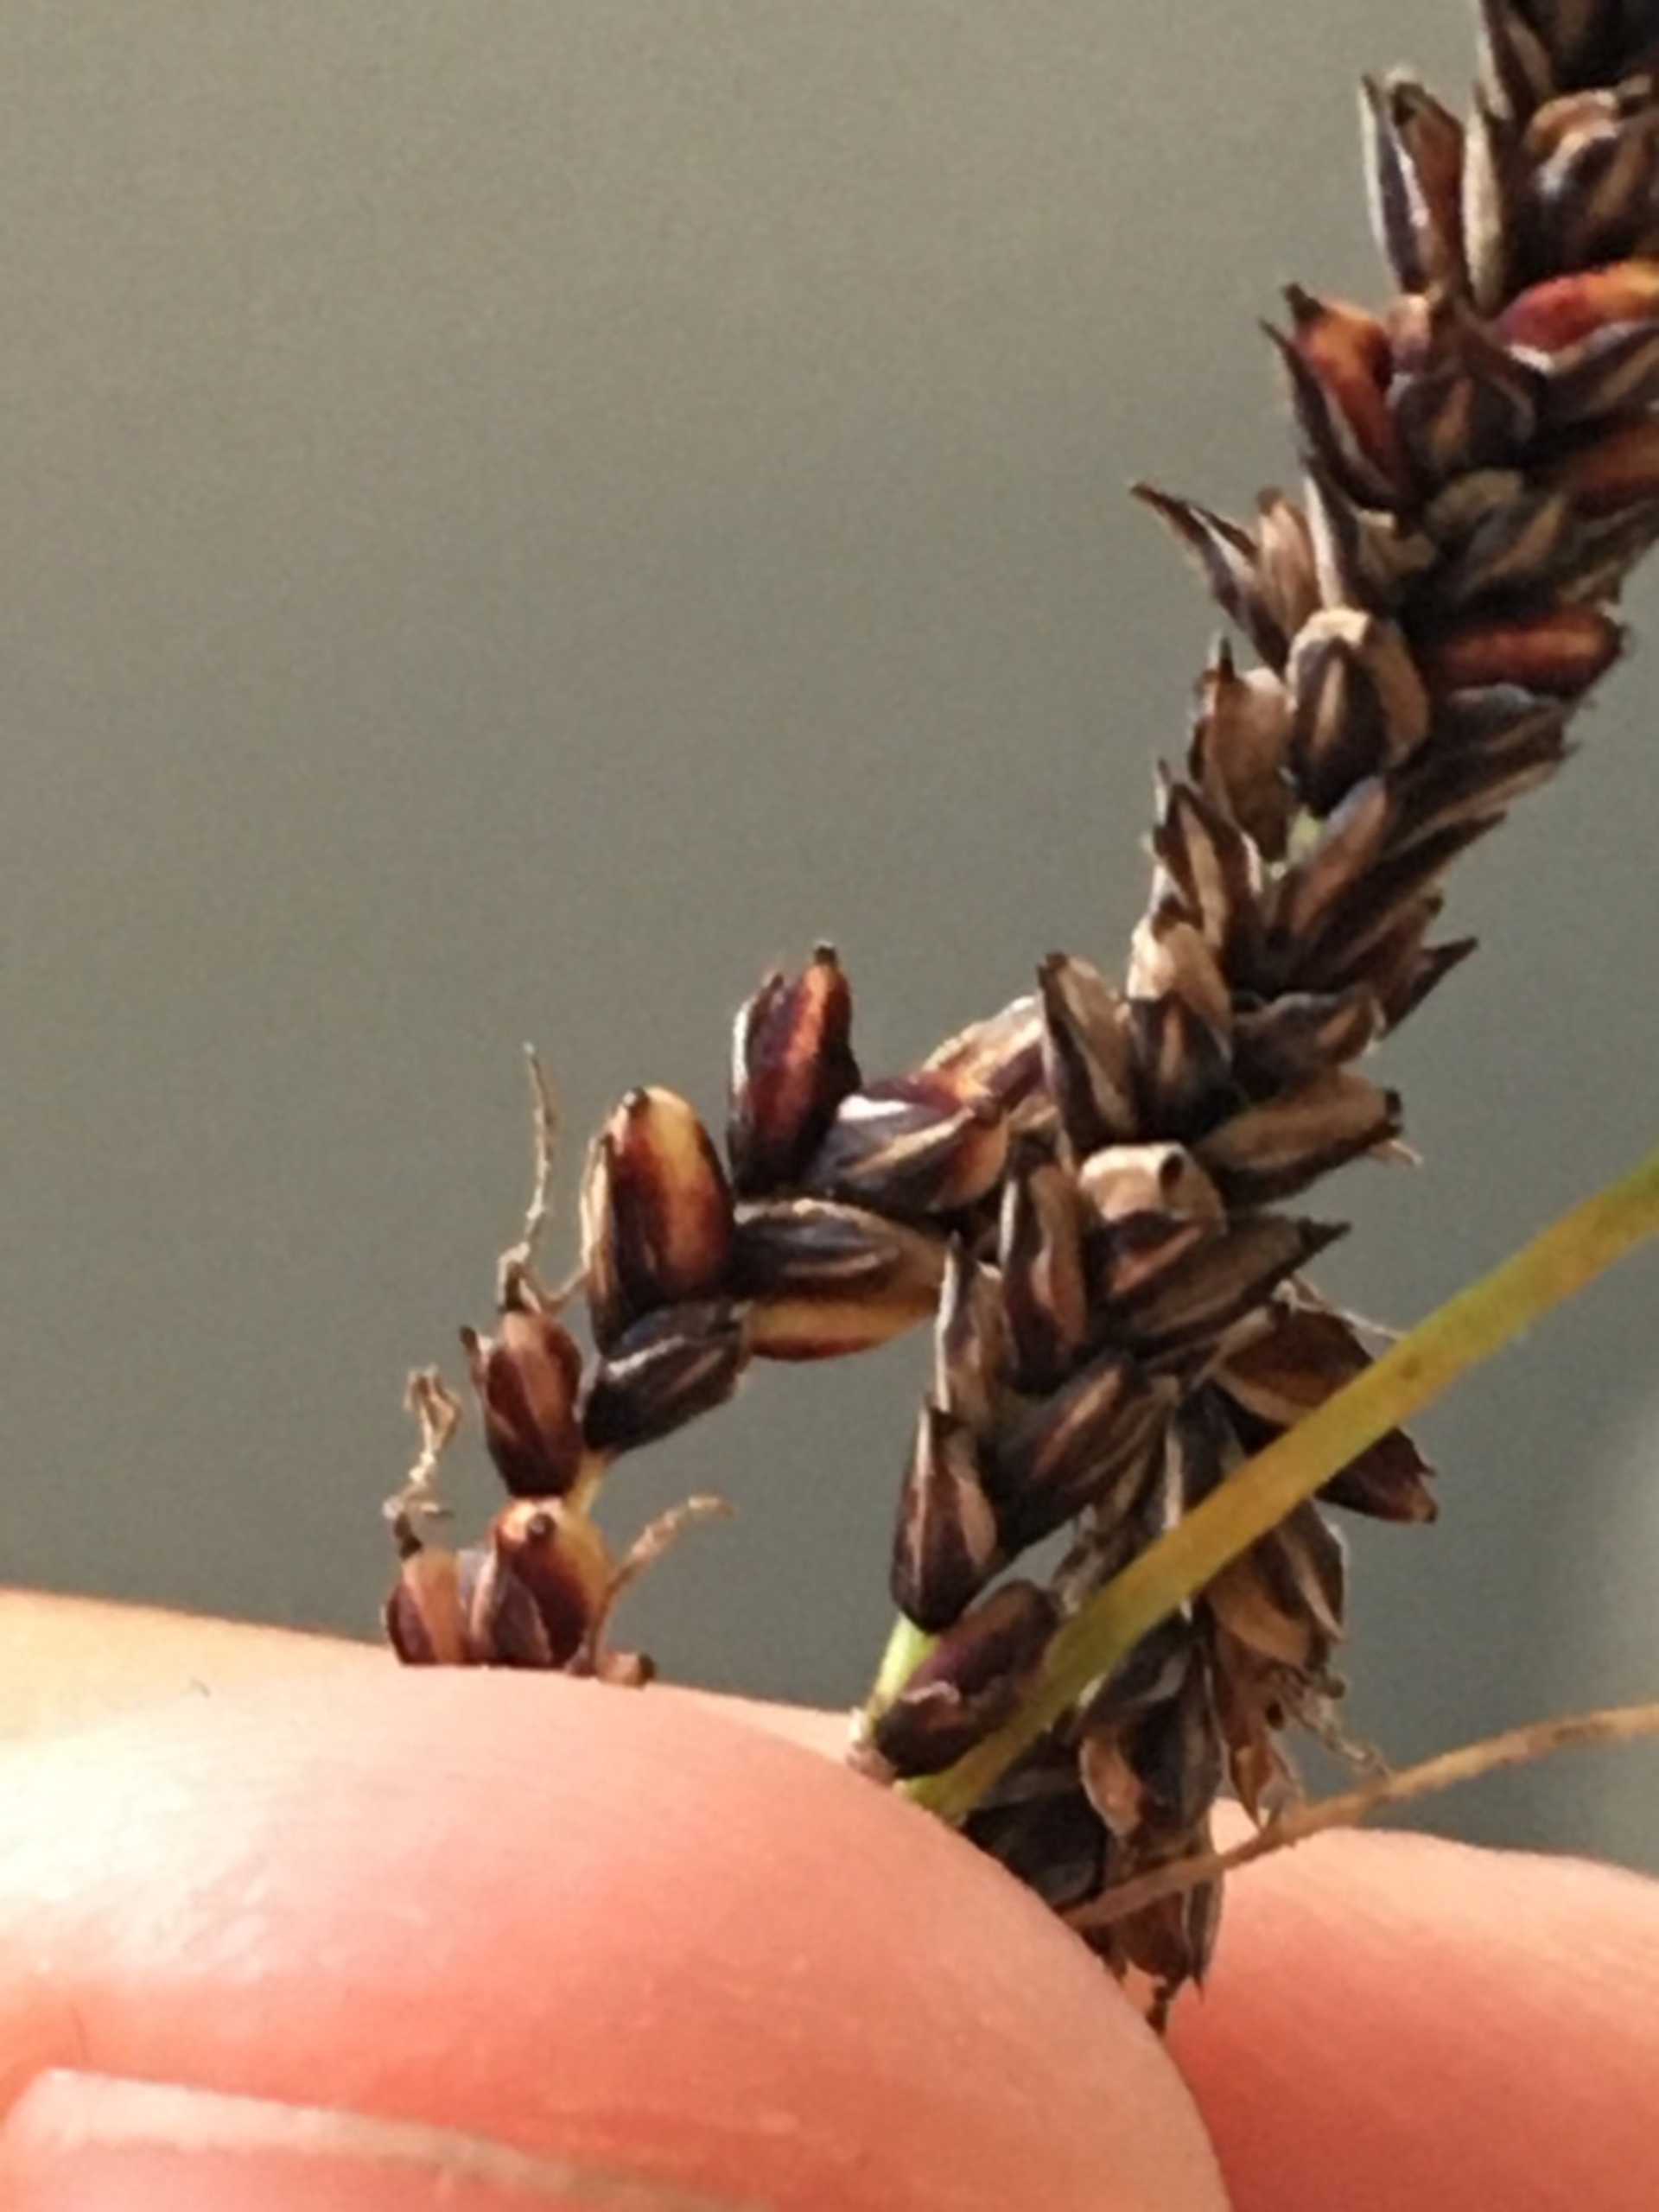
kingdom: Plantae
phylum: Tracheophyta
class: Liliopsida
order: Poales
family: Cyperaceae
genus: Carex
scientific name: Carex flacca
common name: Blågrøn star
